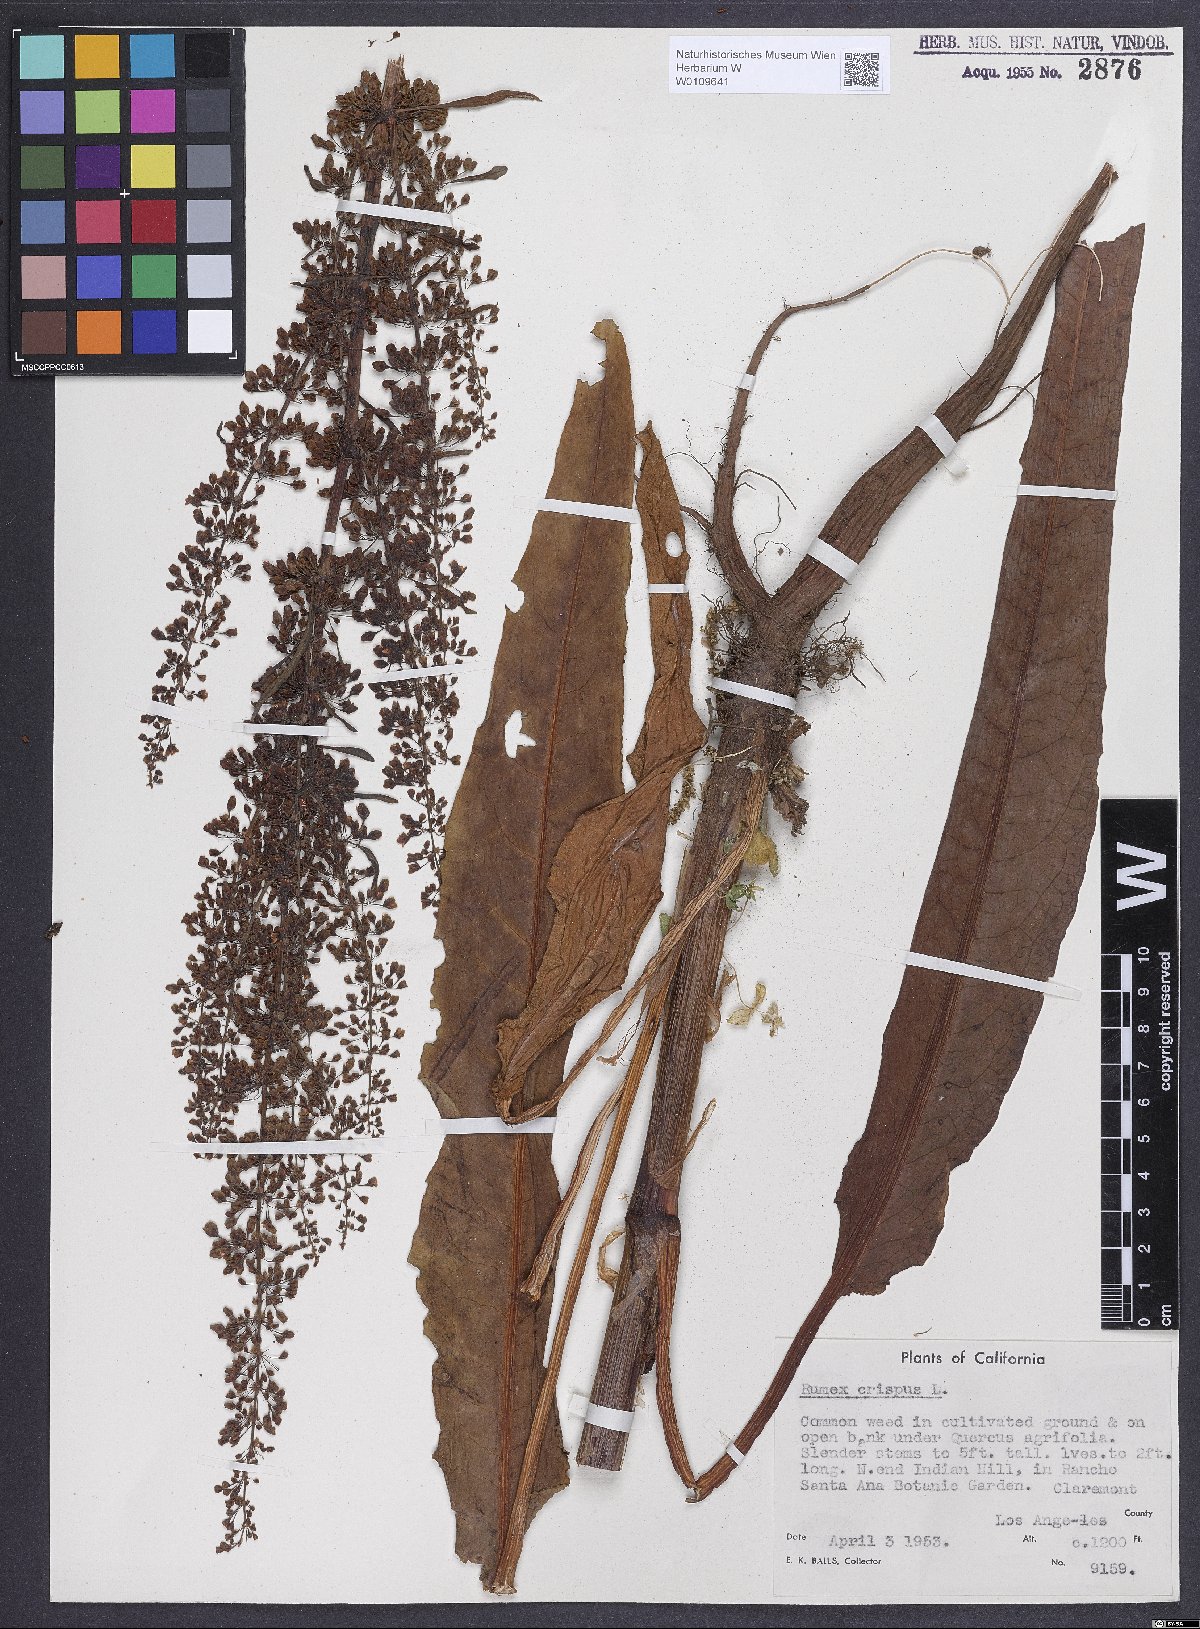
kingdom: Plantae
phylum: Tracheophyta
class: Magnoliopsida
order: Caryophyllales
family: Polygonaceae
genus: Rumex
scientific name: Rumex crispus
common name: Curled dock
